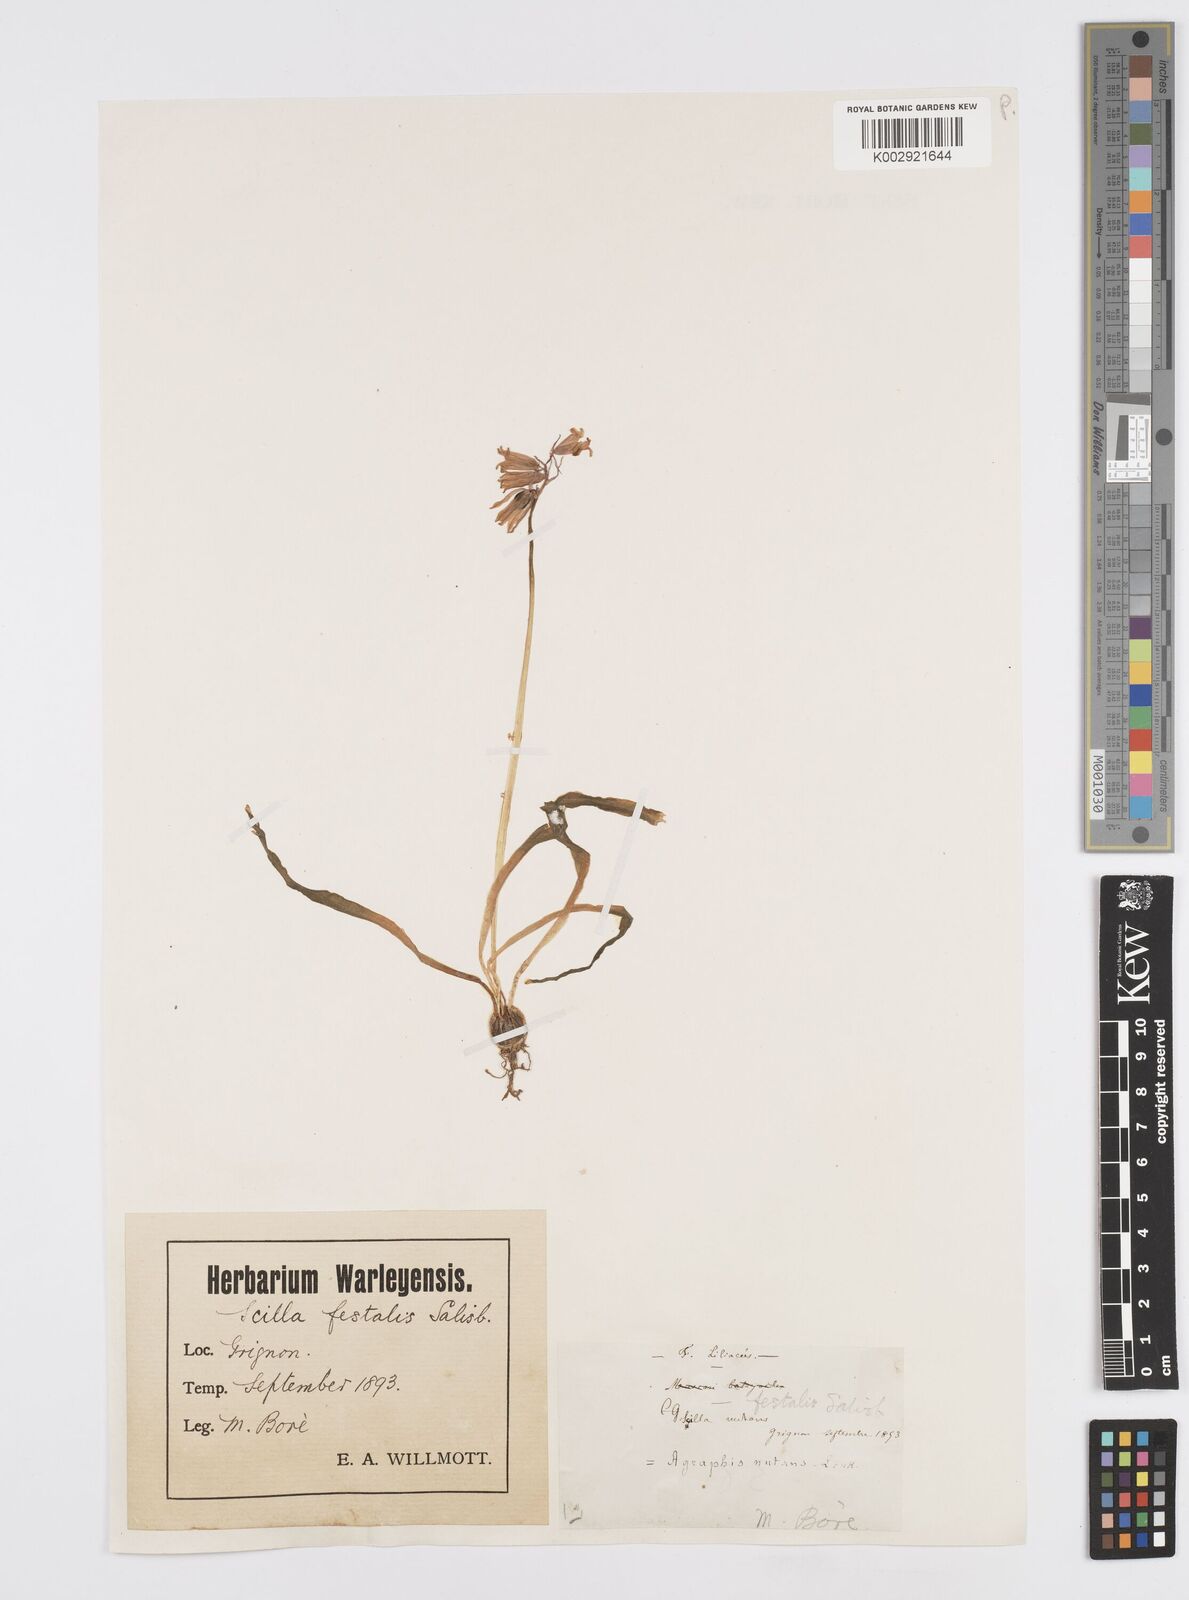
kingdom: Plantae
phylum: Tracheophyta
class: Liliopsida
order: Asparagales
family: Asparagaceae
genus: Hyacinthoides
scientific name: Hyacinthoides non-scripta
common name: Bluebell
